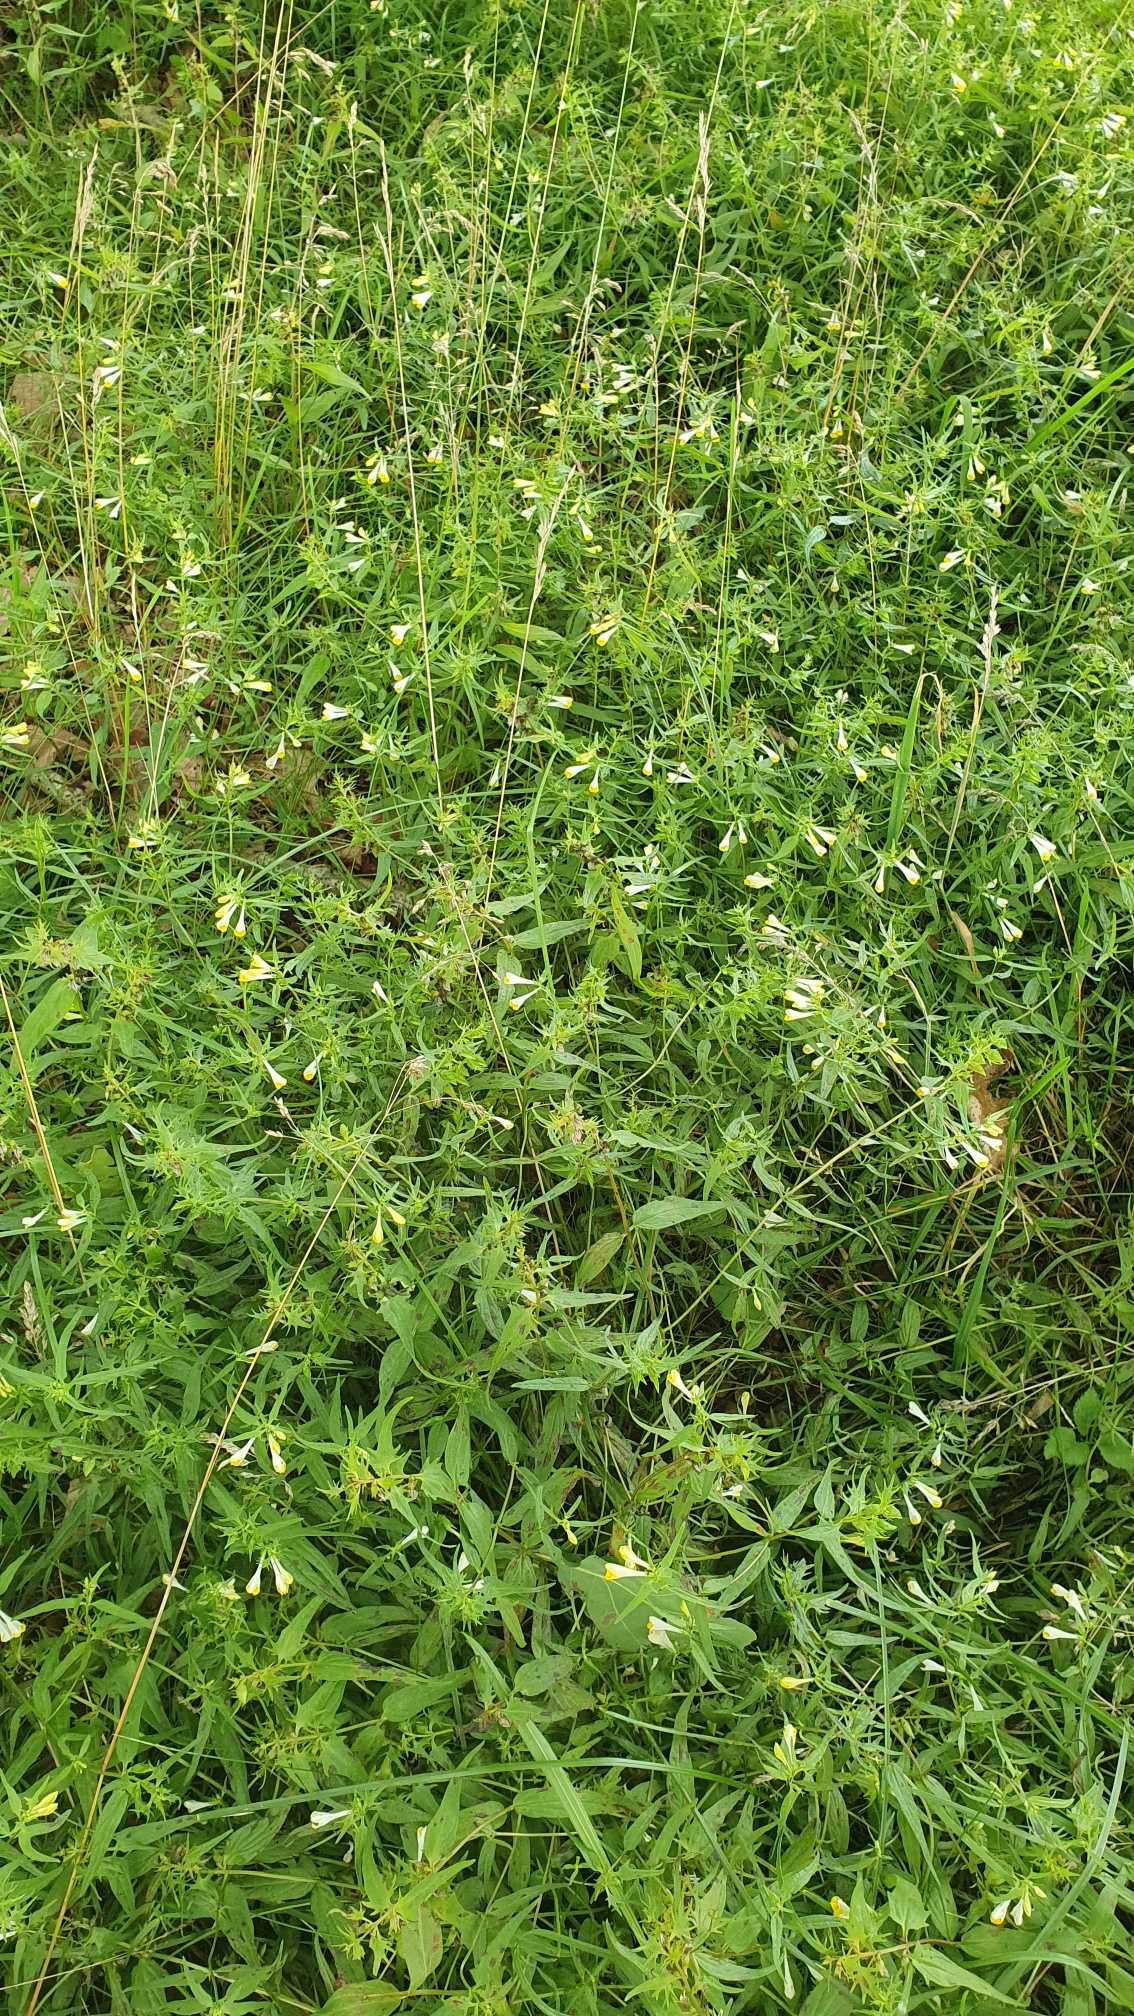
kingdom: Plantae
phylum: Tracheophyta
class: Magnoliopsida
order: Lamiales
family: Orobanchaceae
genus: Melampyrum
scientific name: Melampyrum pratense
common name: Almindelig kohvede
